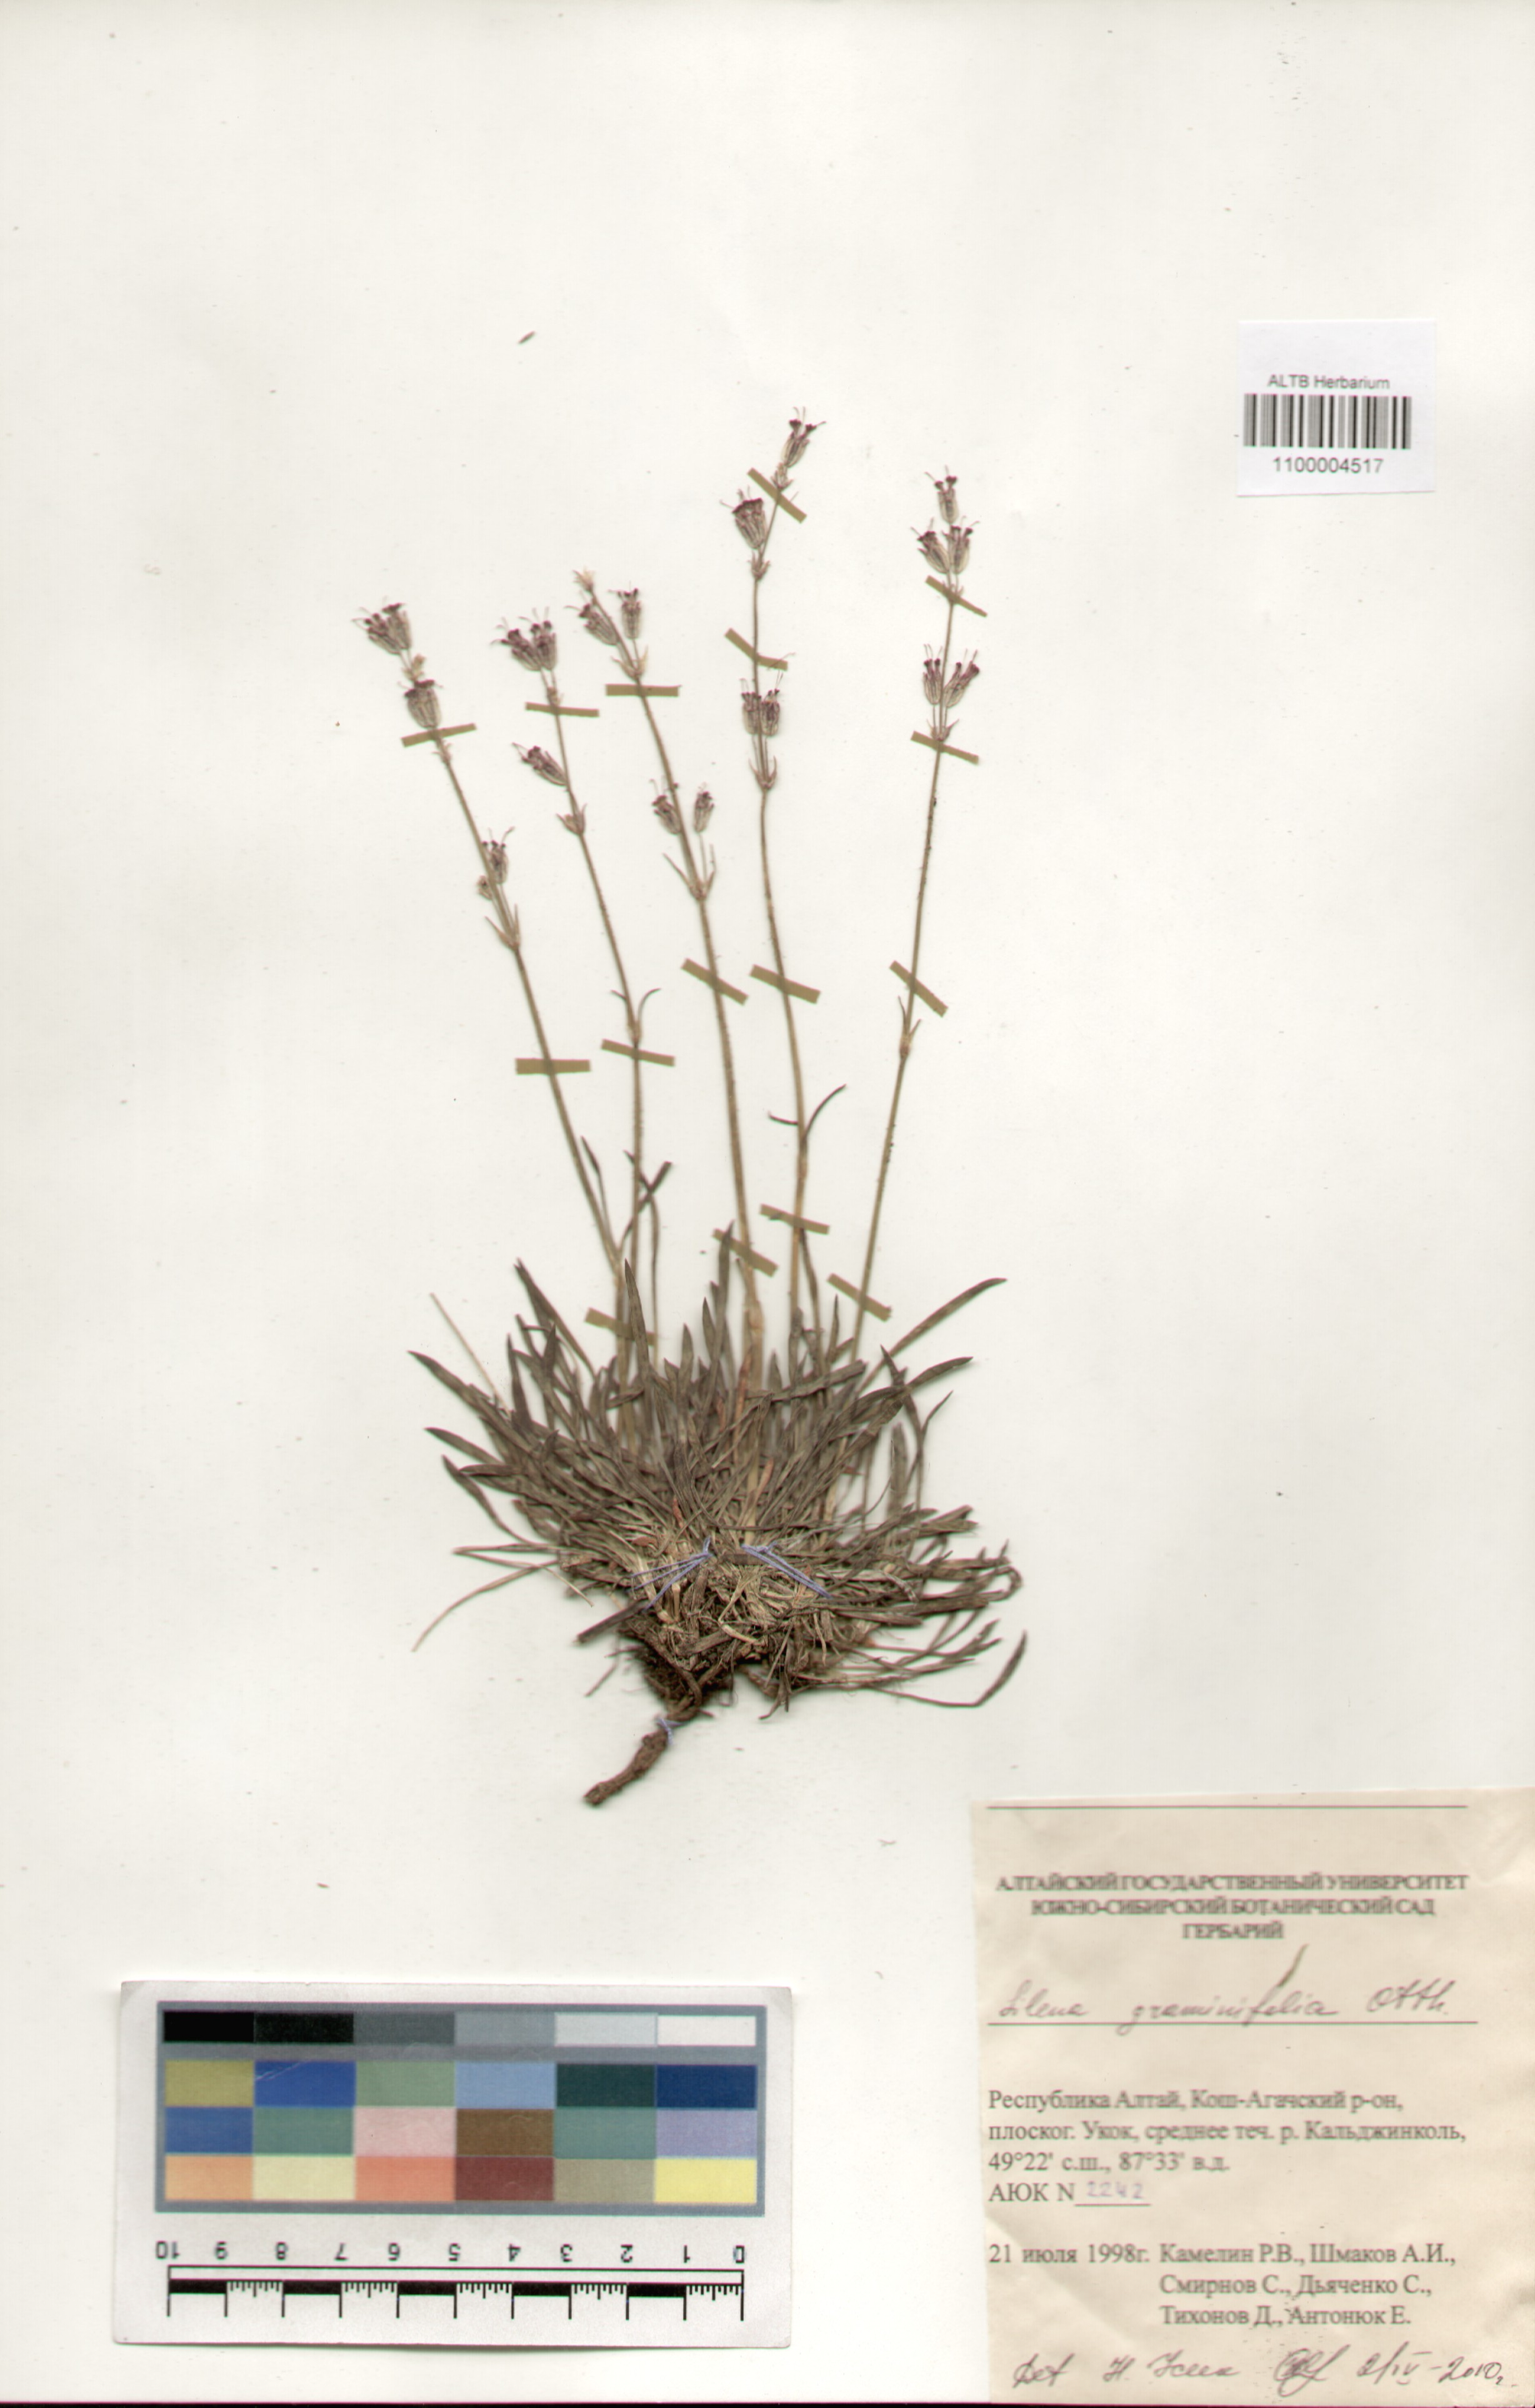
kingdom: Plantae
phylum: Tracheophyta
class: Magnoliopsida
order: Caryophyllales
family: Caryophyllaceae
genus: Silene
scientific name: Silene graminifolia
